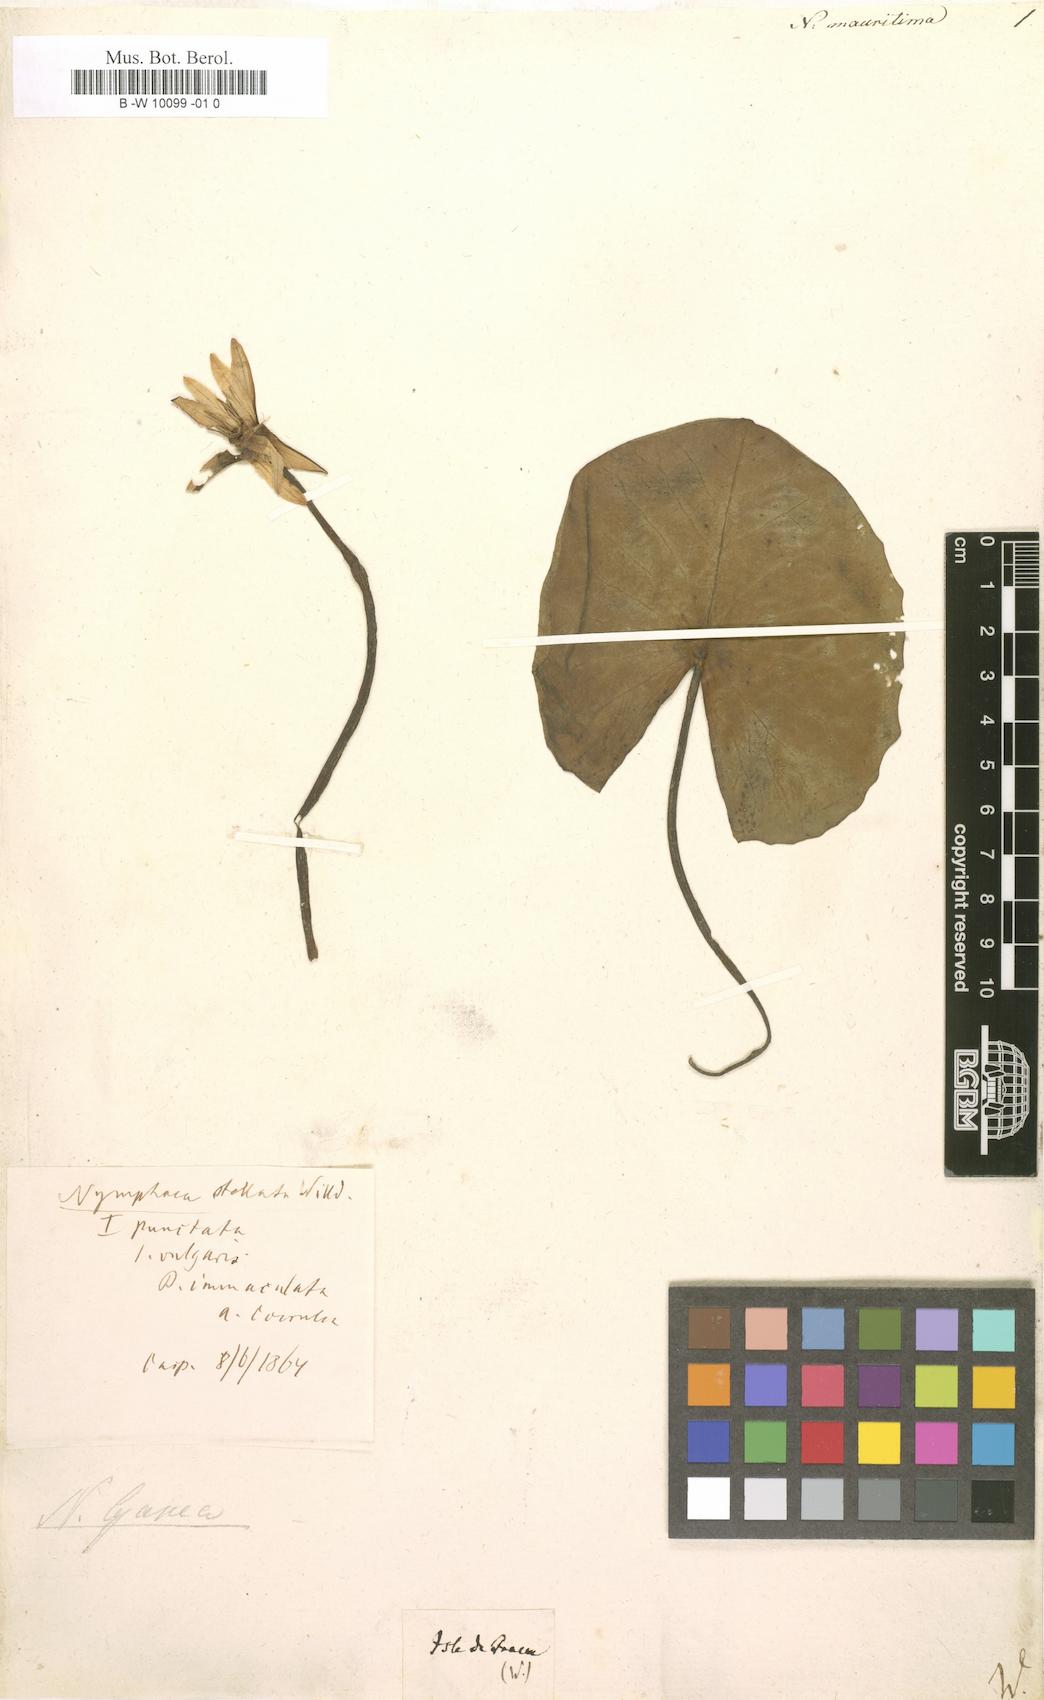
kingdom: Plantae
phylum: Tracheophyta
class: Magnoliopsida
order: Nymphaeales
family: Nymphaeaceae
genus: Nymphaea
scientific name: Nymphaea
